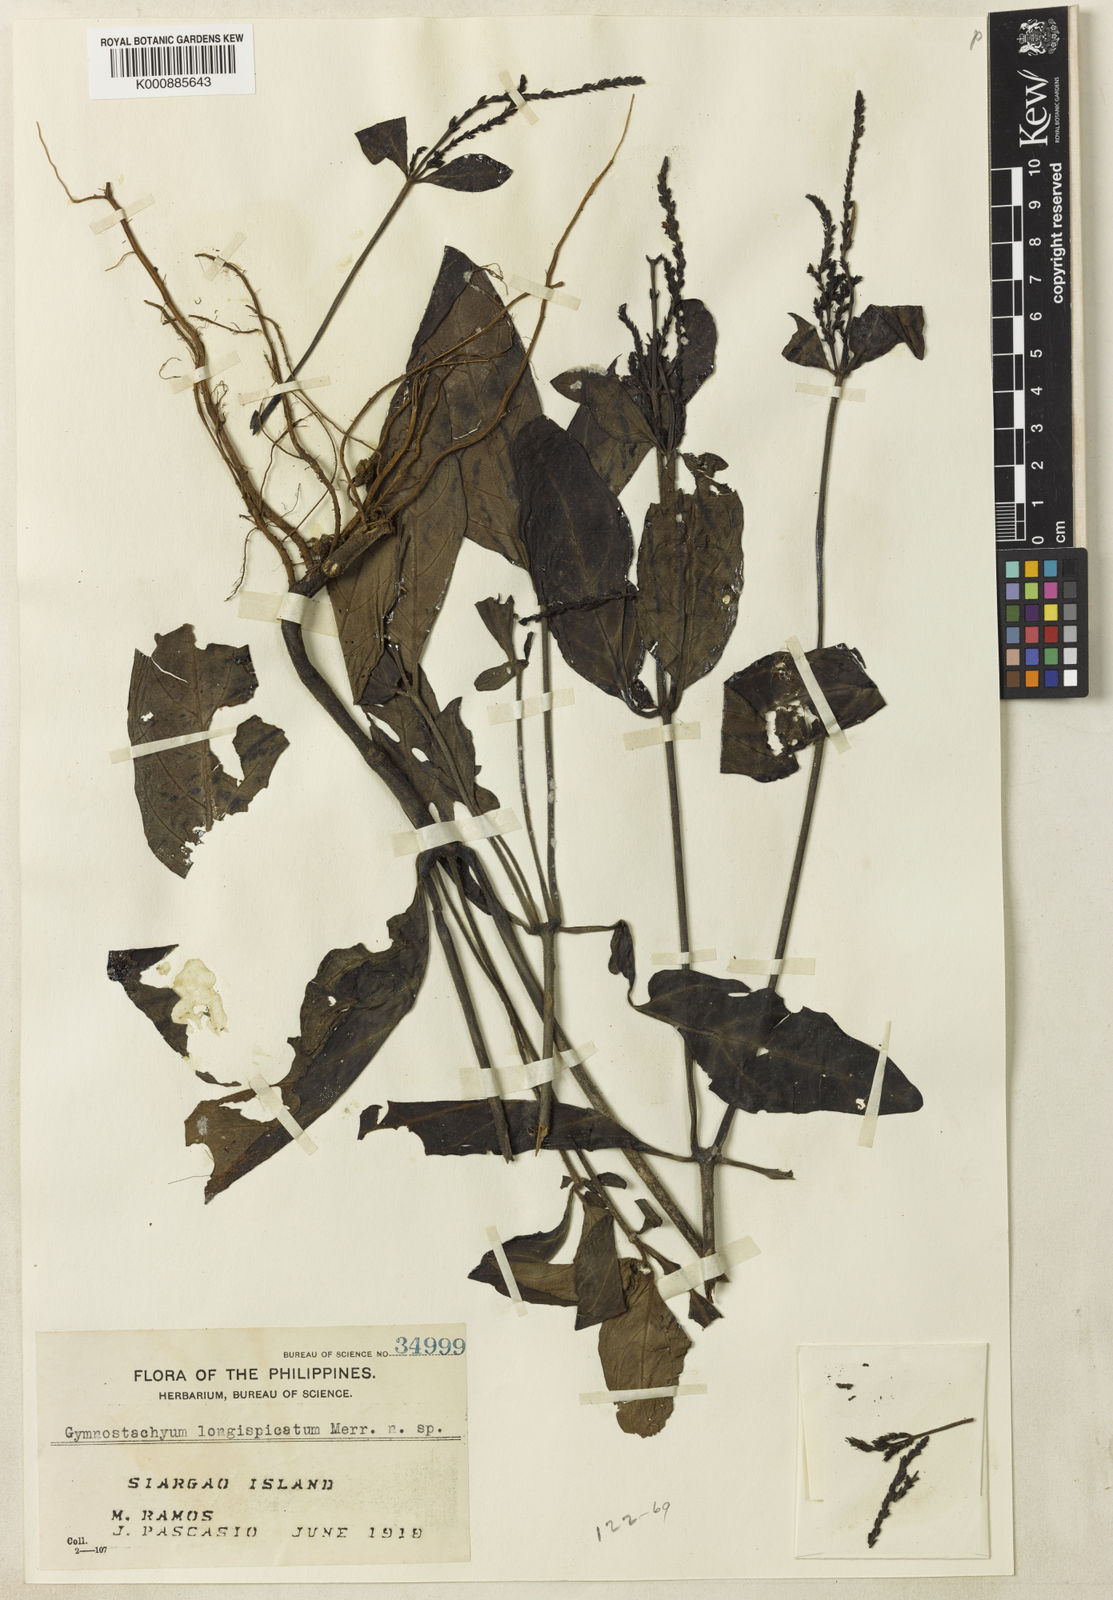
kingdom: Plantae
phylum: Tracheophyta
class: Magnoliopsida
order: Lamiales
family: Acanthaceae
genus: Gymnostachyum
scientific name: Gymnostachyum longispicatum
